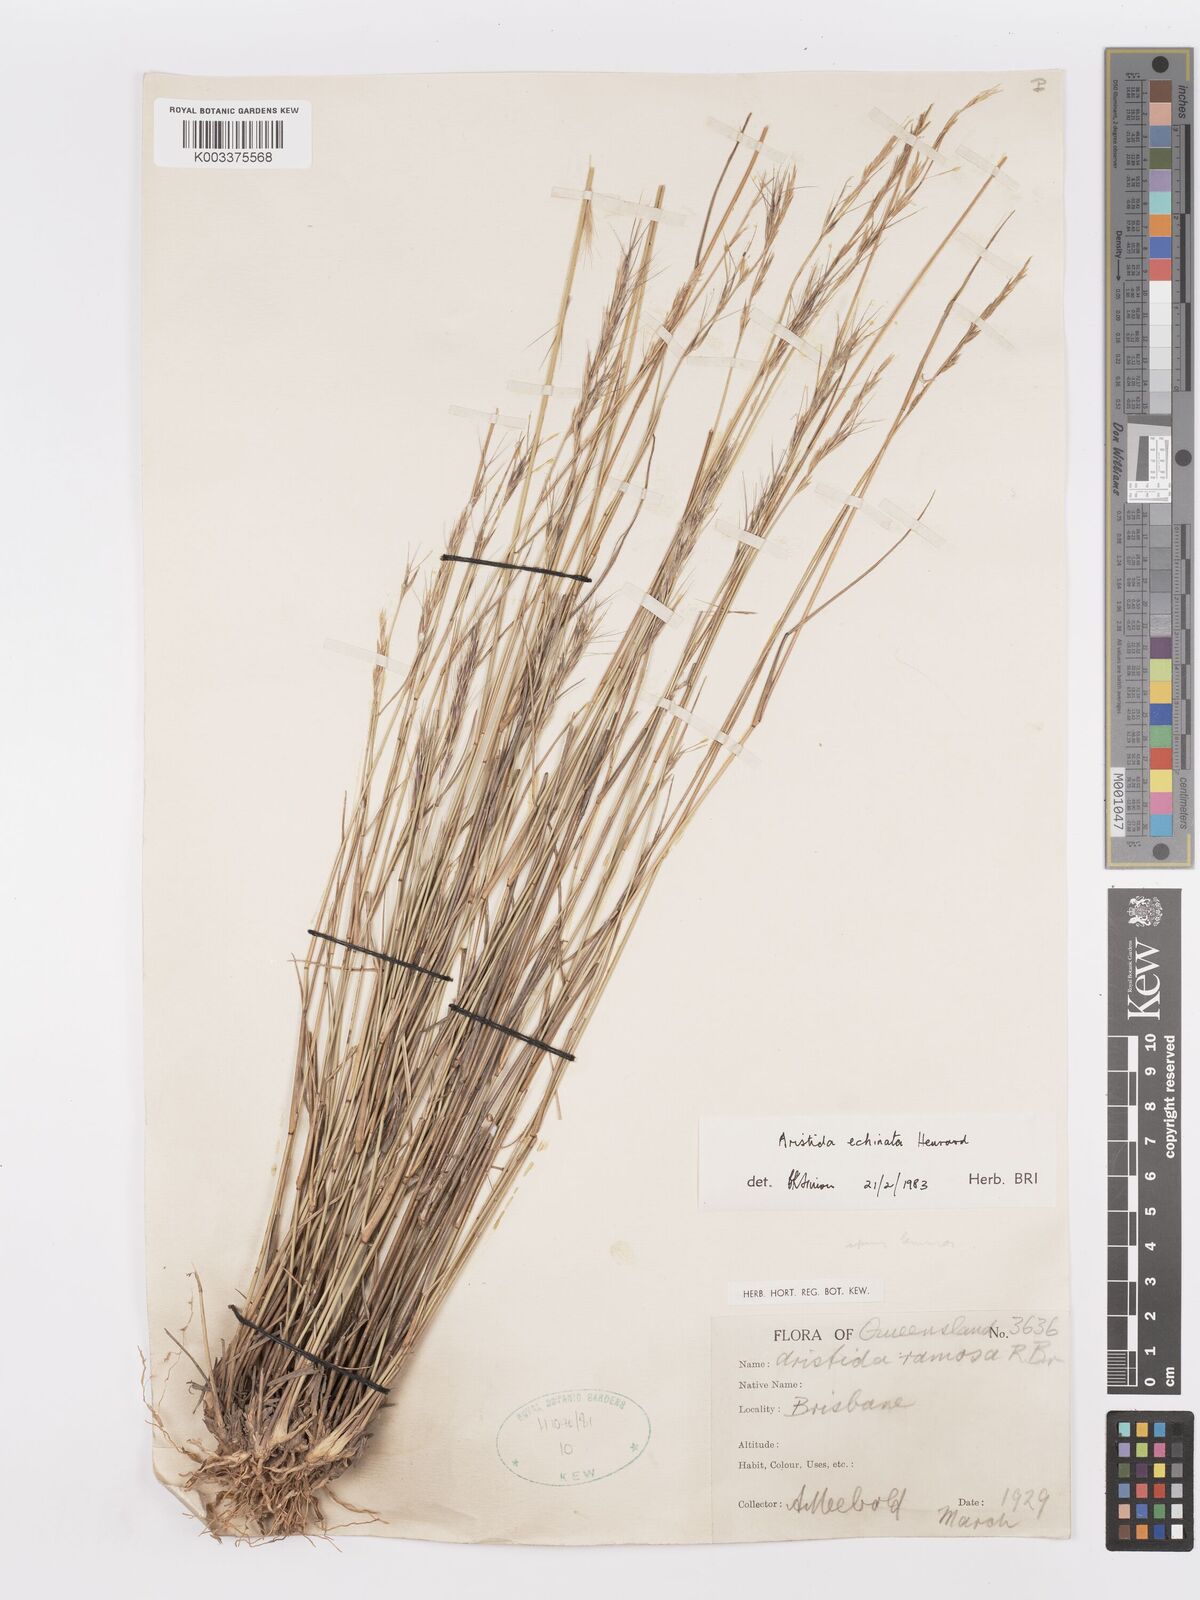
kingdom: Plantae
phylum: Tracheophyta
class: Liliopsida
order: Poales
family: Poaceae
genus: Aristida
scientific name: Aristida echinata
